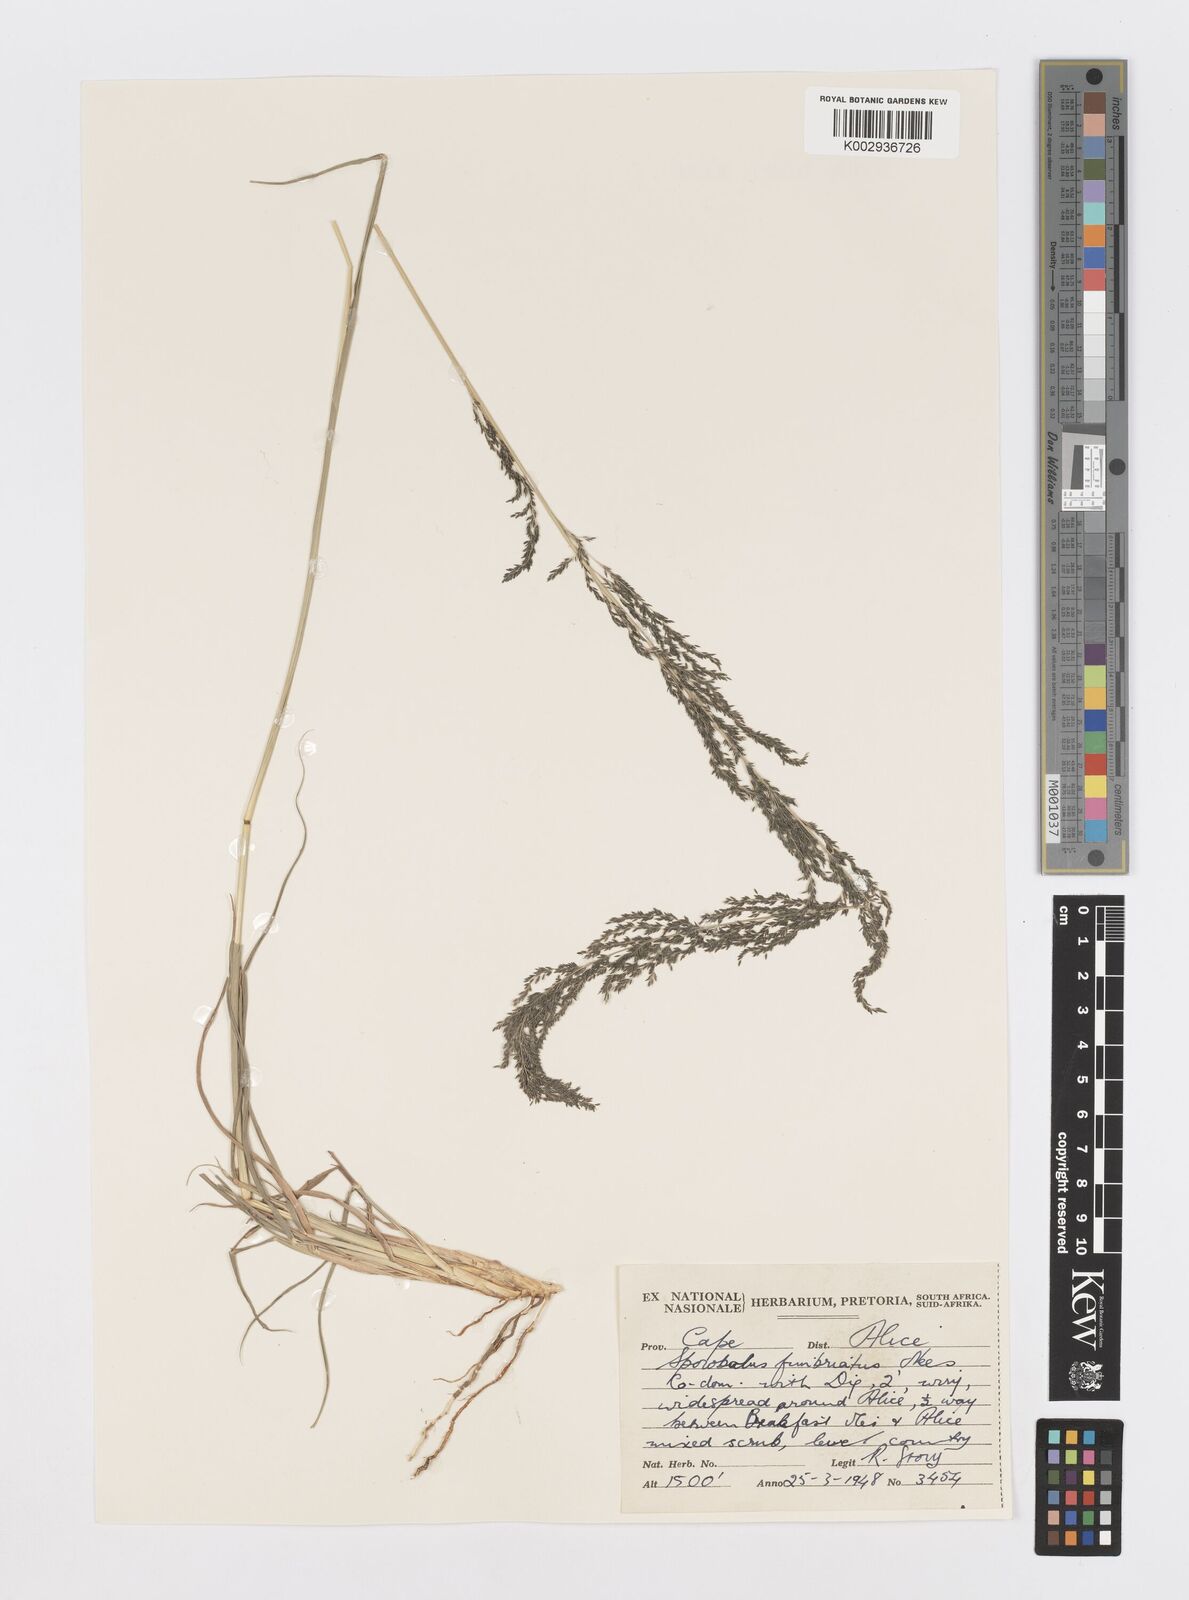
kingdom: Plantae
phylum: Tracheophyta
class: Liliopsida
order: Poales
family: Poaceae
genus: Sporobolus
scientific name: Sporobolus fimbriatus
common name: Fringed dropseed
